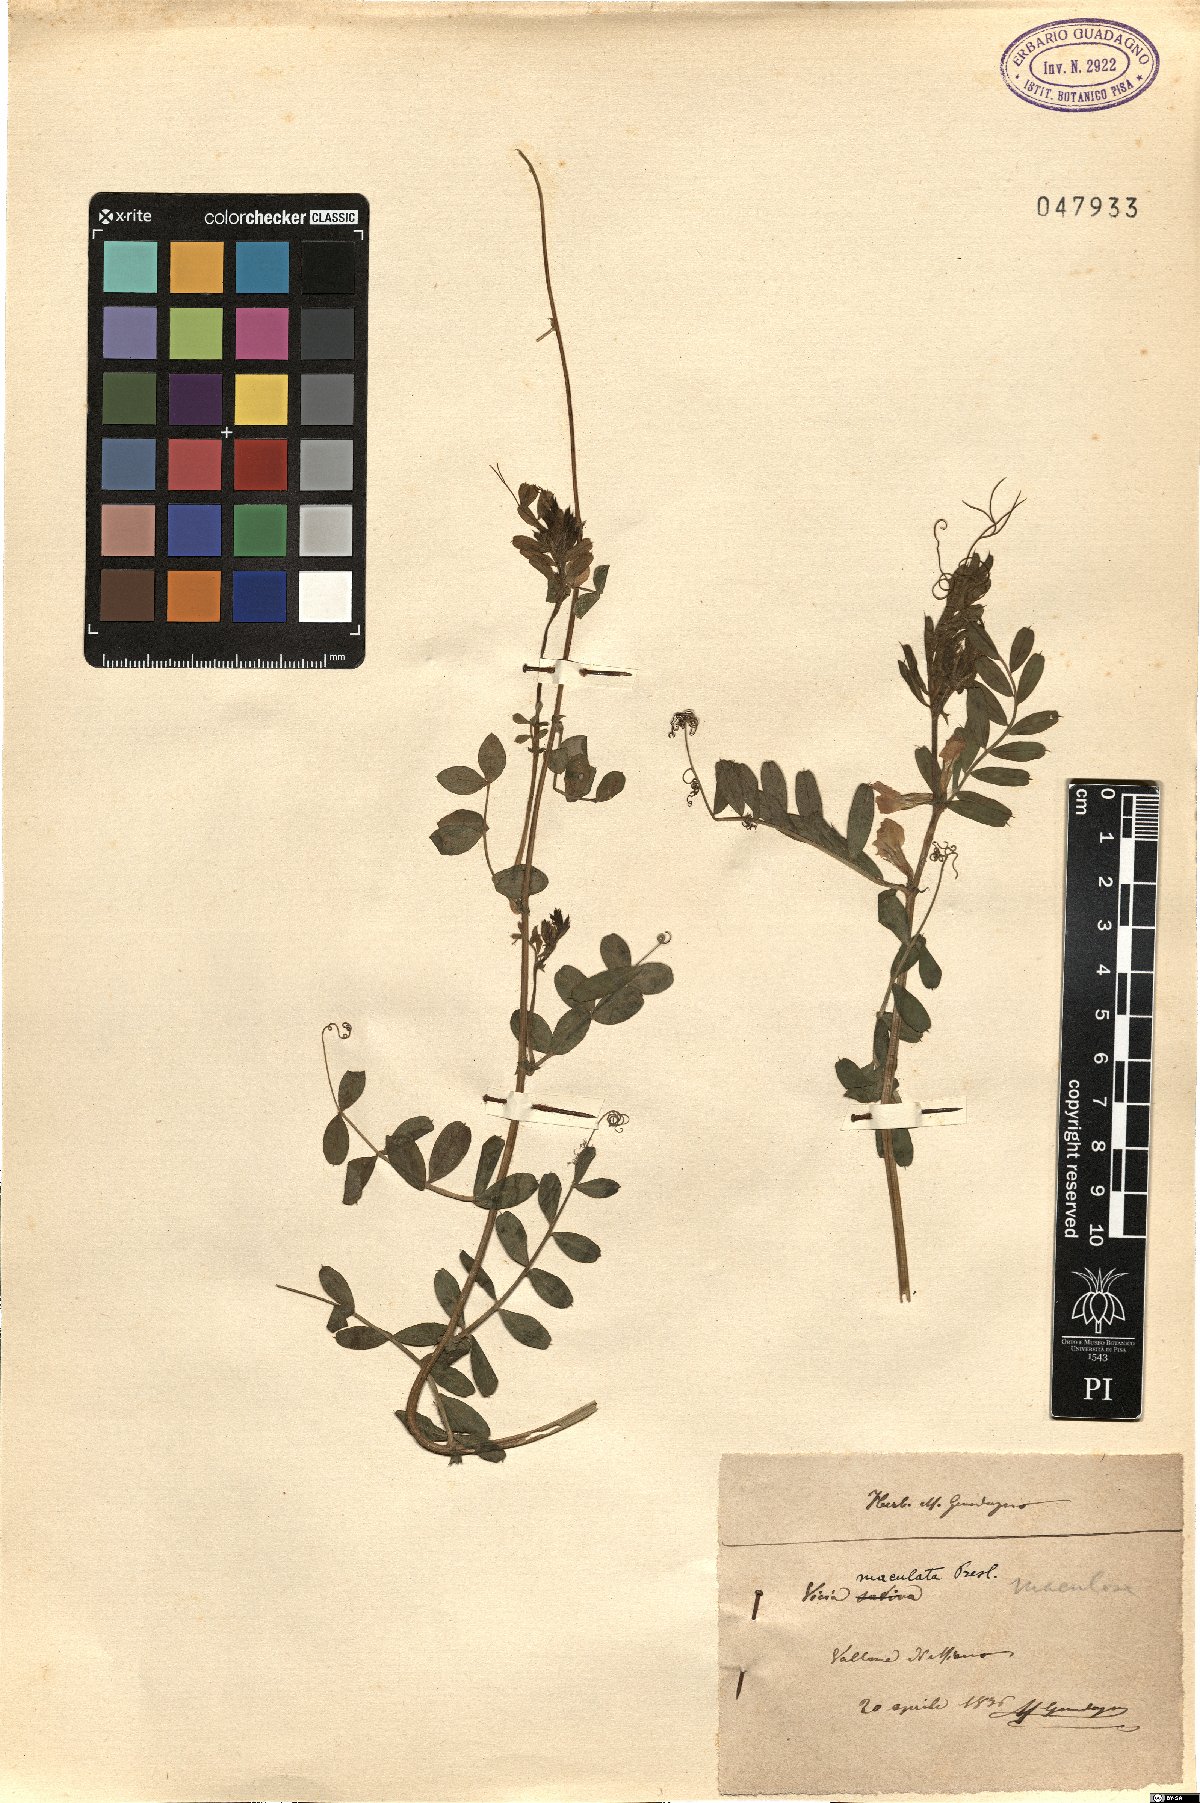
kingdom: Plantae
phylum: Tracheophyta
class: Magnoliopsida
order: Fabales
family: Fabaceae
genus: Vicia
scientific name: Vicia sativa
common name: Garden vetch
